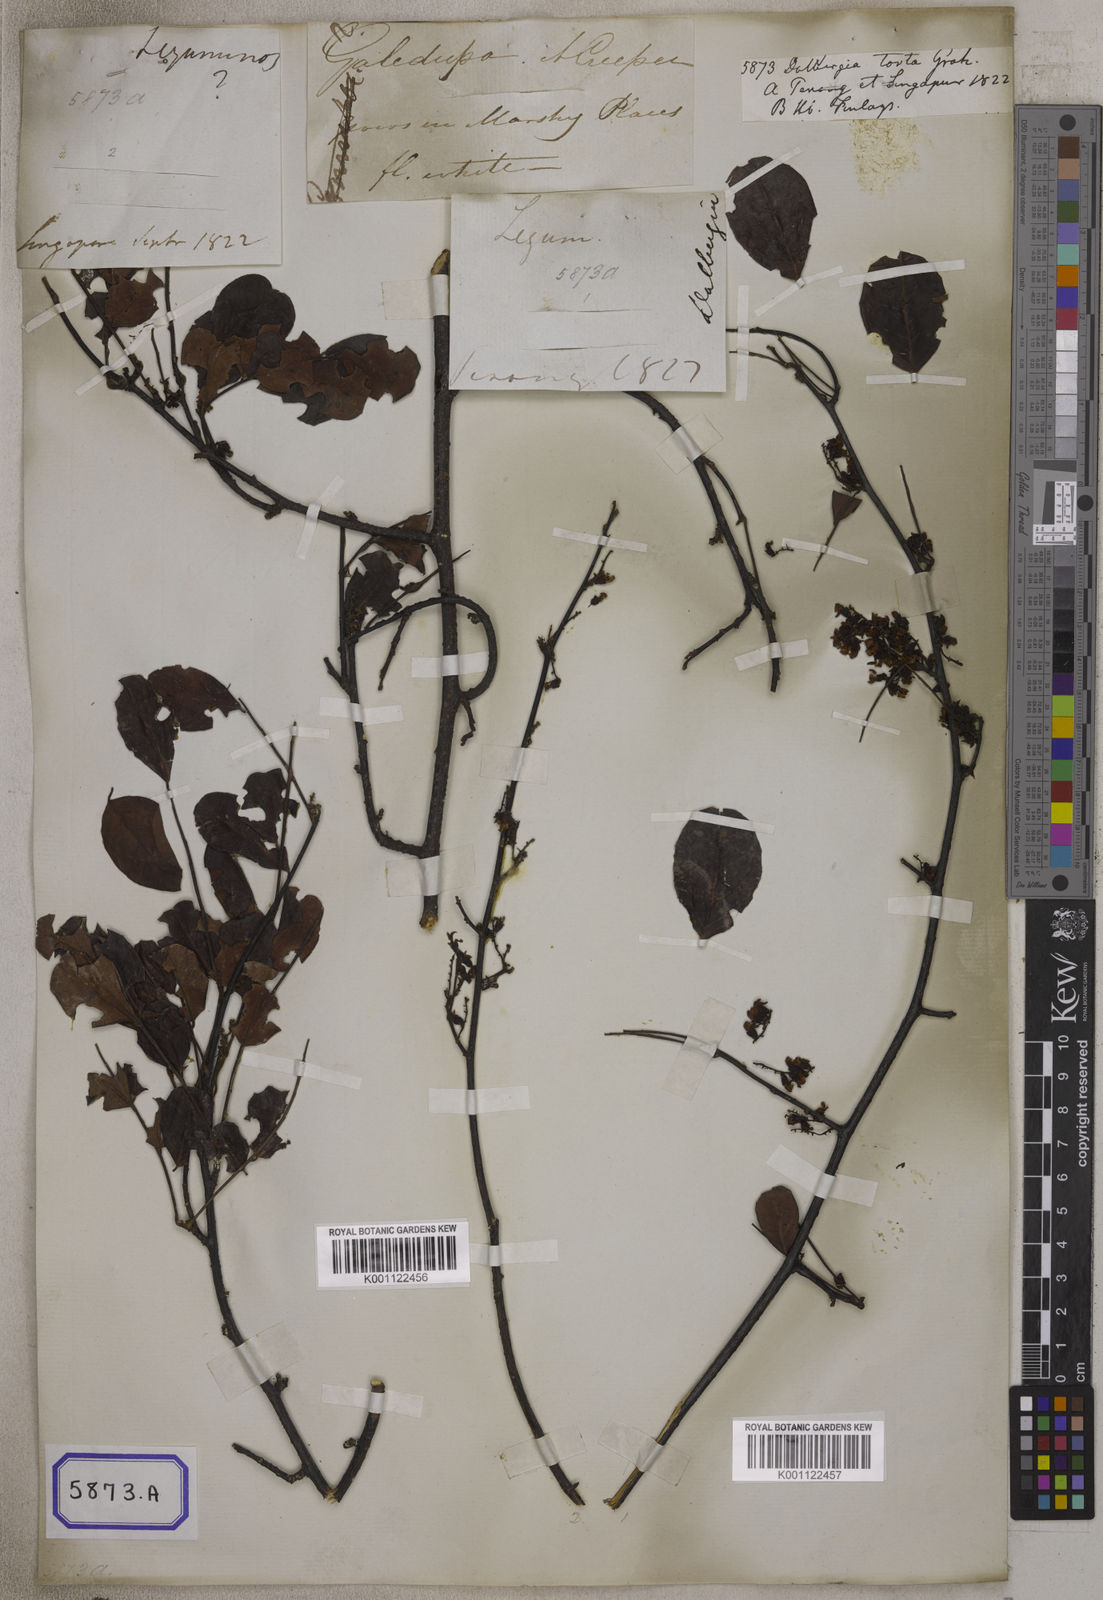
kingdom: Plantae
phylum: Tracheophyta
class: Magnoliopsida
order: Fabales
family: Fabaceae
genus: Dalbergia
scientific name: Dalbergia candenatensis
